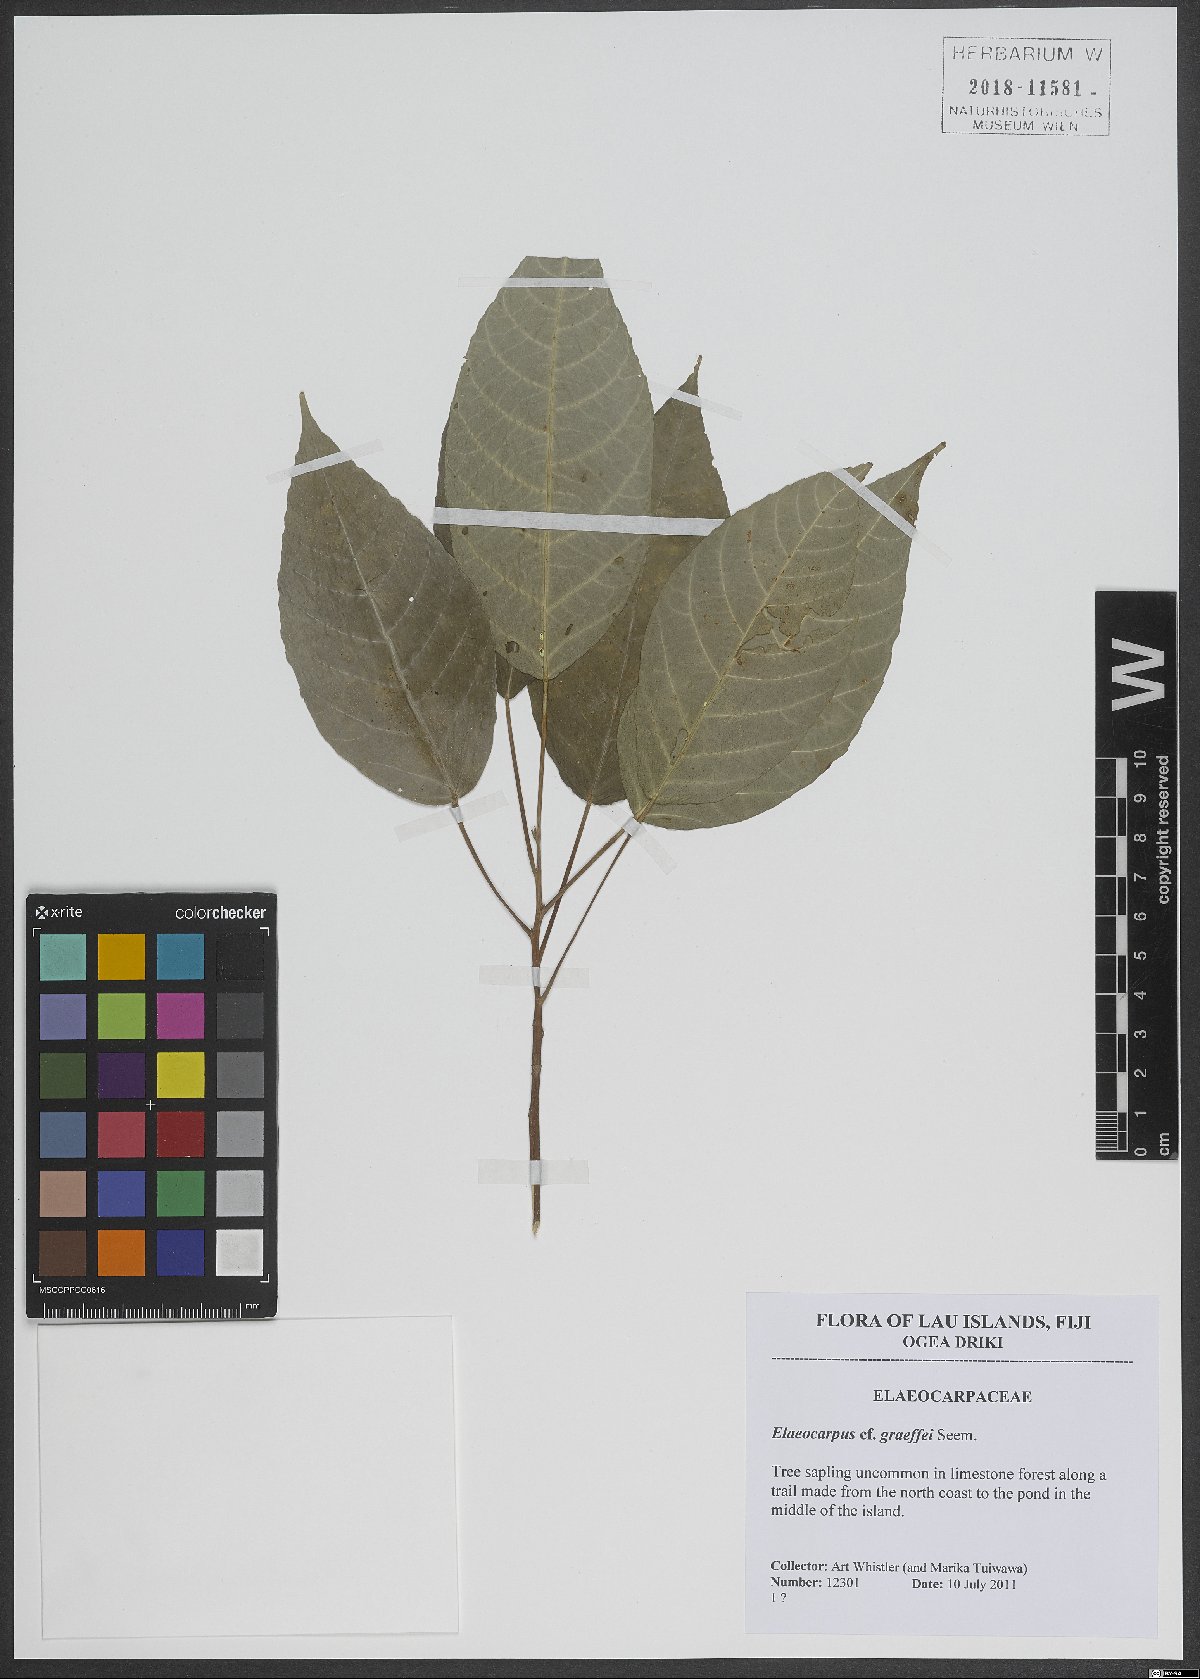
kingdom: Plantae
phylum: Tracheophyta
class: Magnoliopsida
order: Oxalidales
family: Elaeocarpaceae
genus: Elaeocarpus
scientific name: Elaeocarpus graeffei
